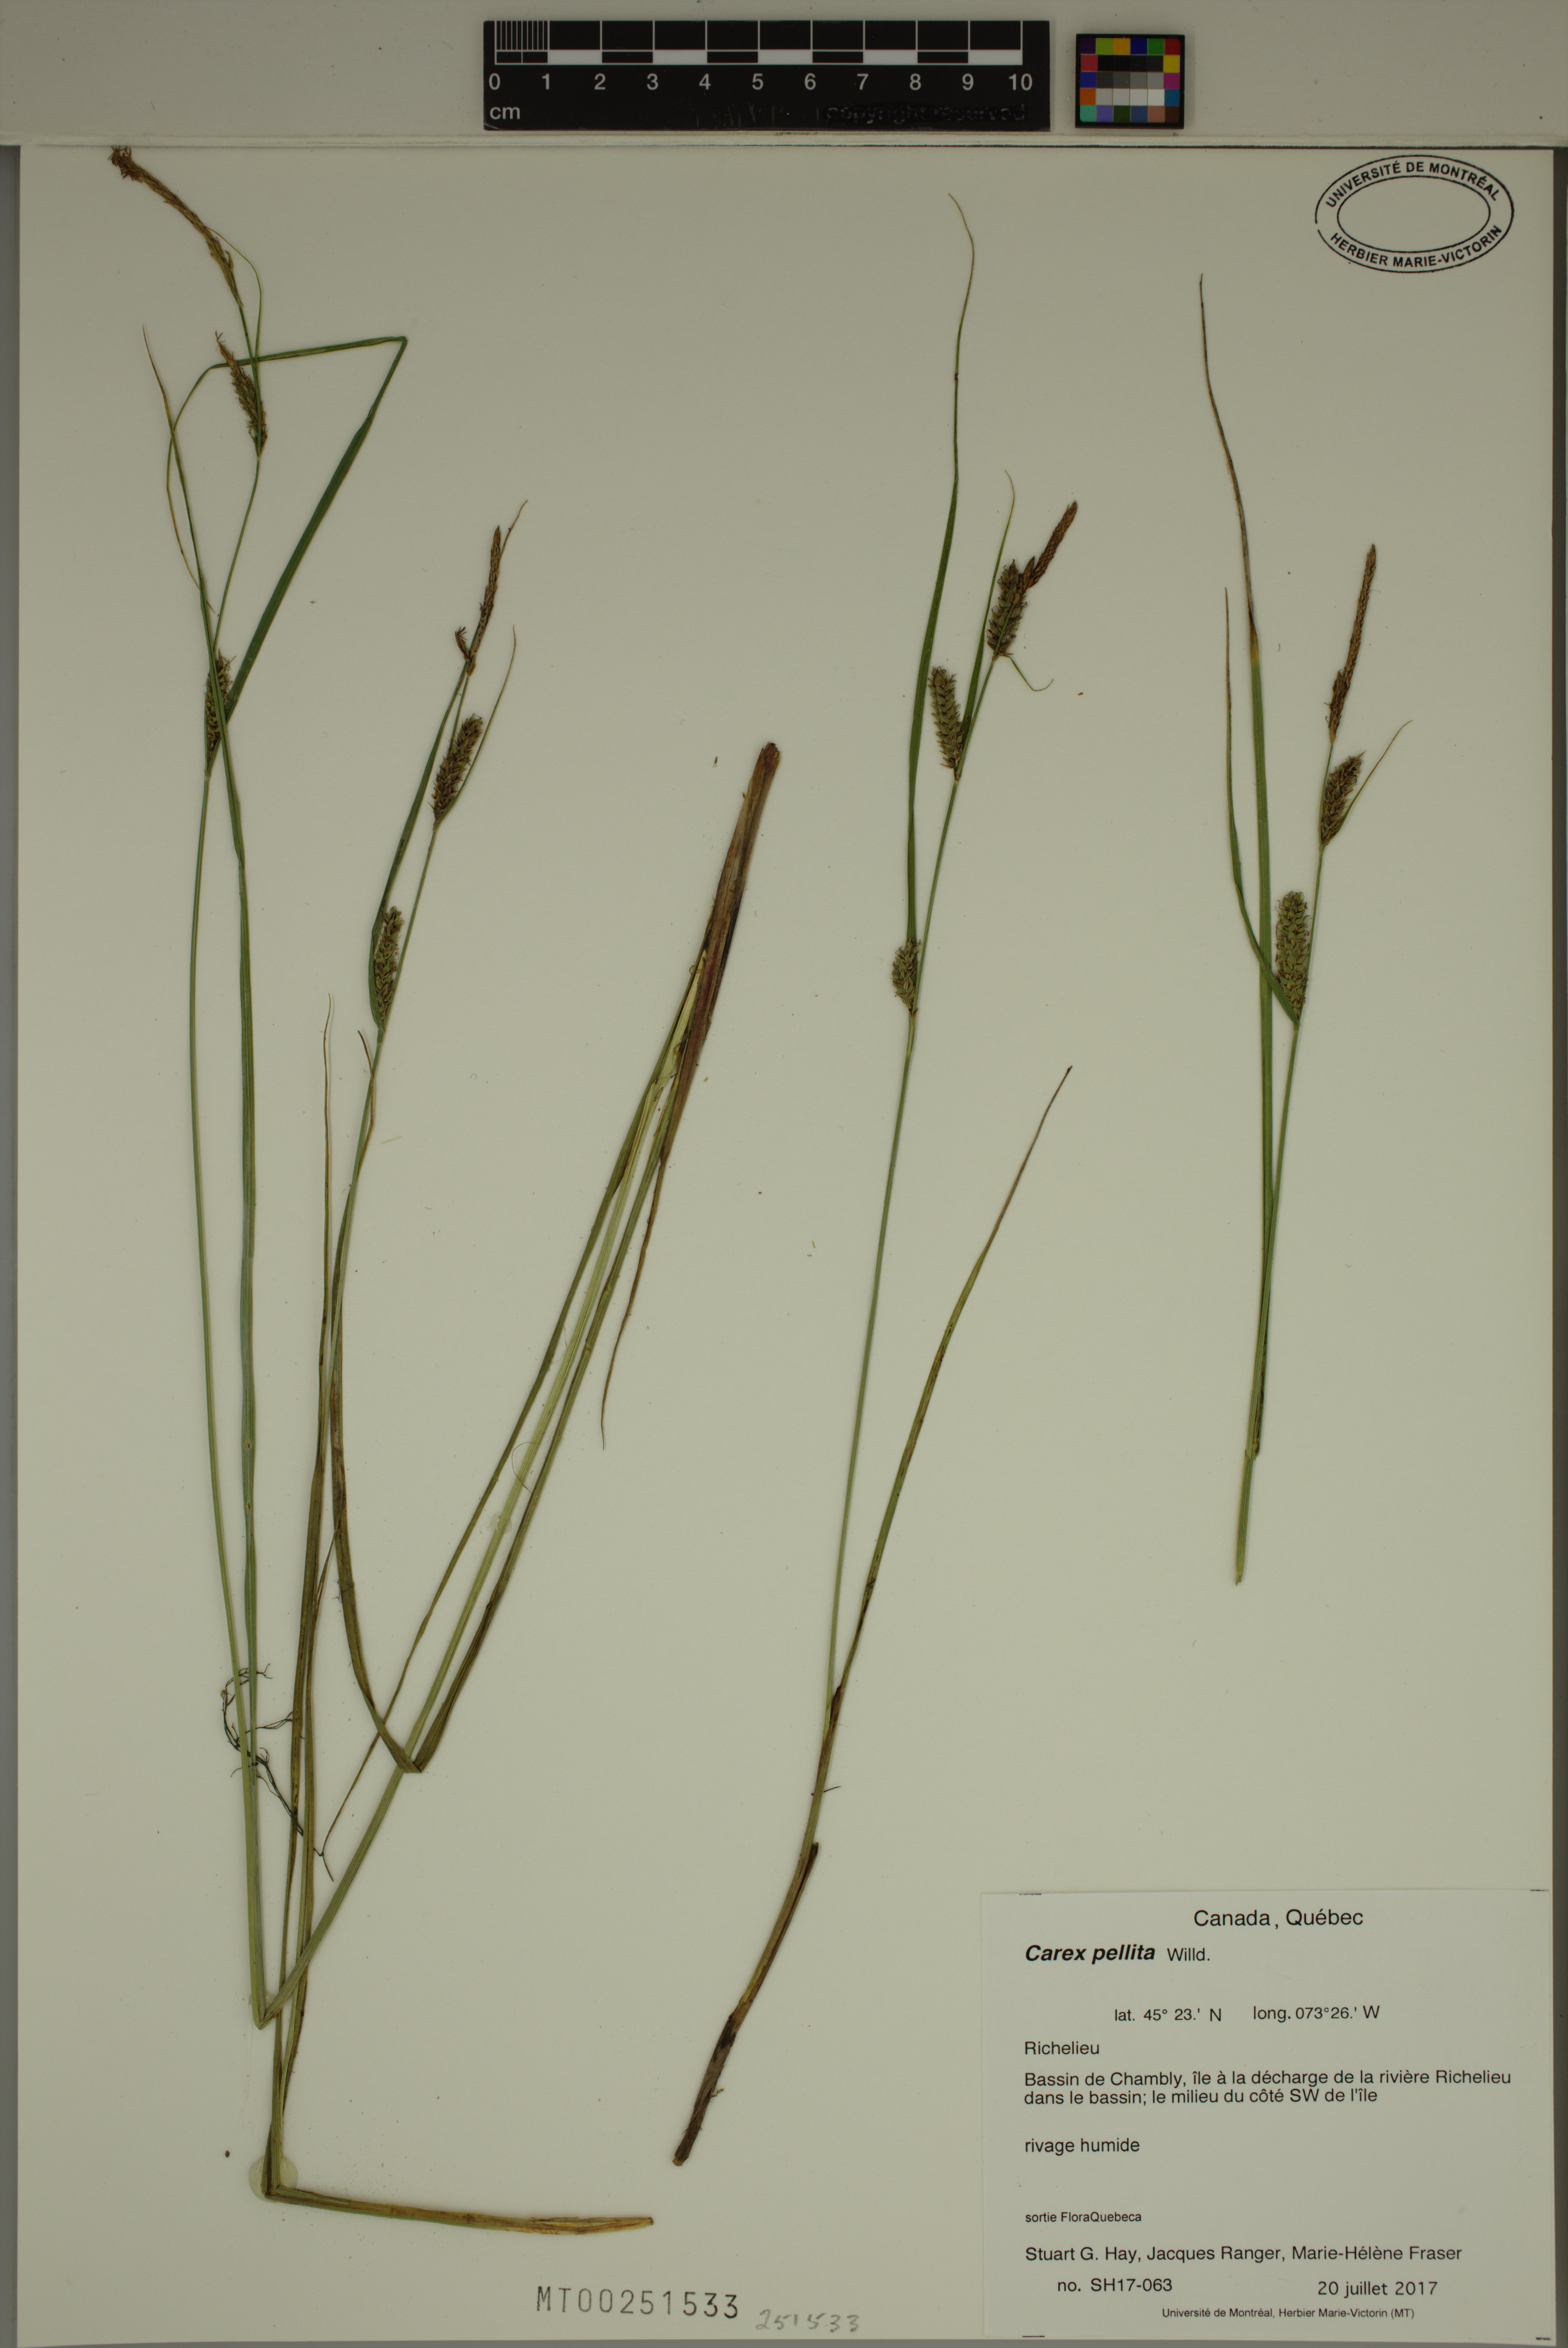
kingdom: Plantae
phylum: Tracheophyta
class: Liliopsida
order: Poales
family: Cyperaceae
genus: Carex
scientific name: Carex pellita
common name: Woolly sedge
